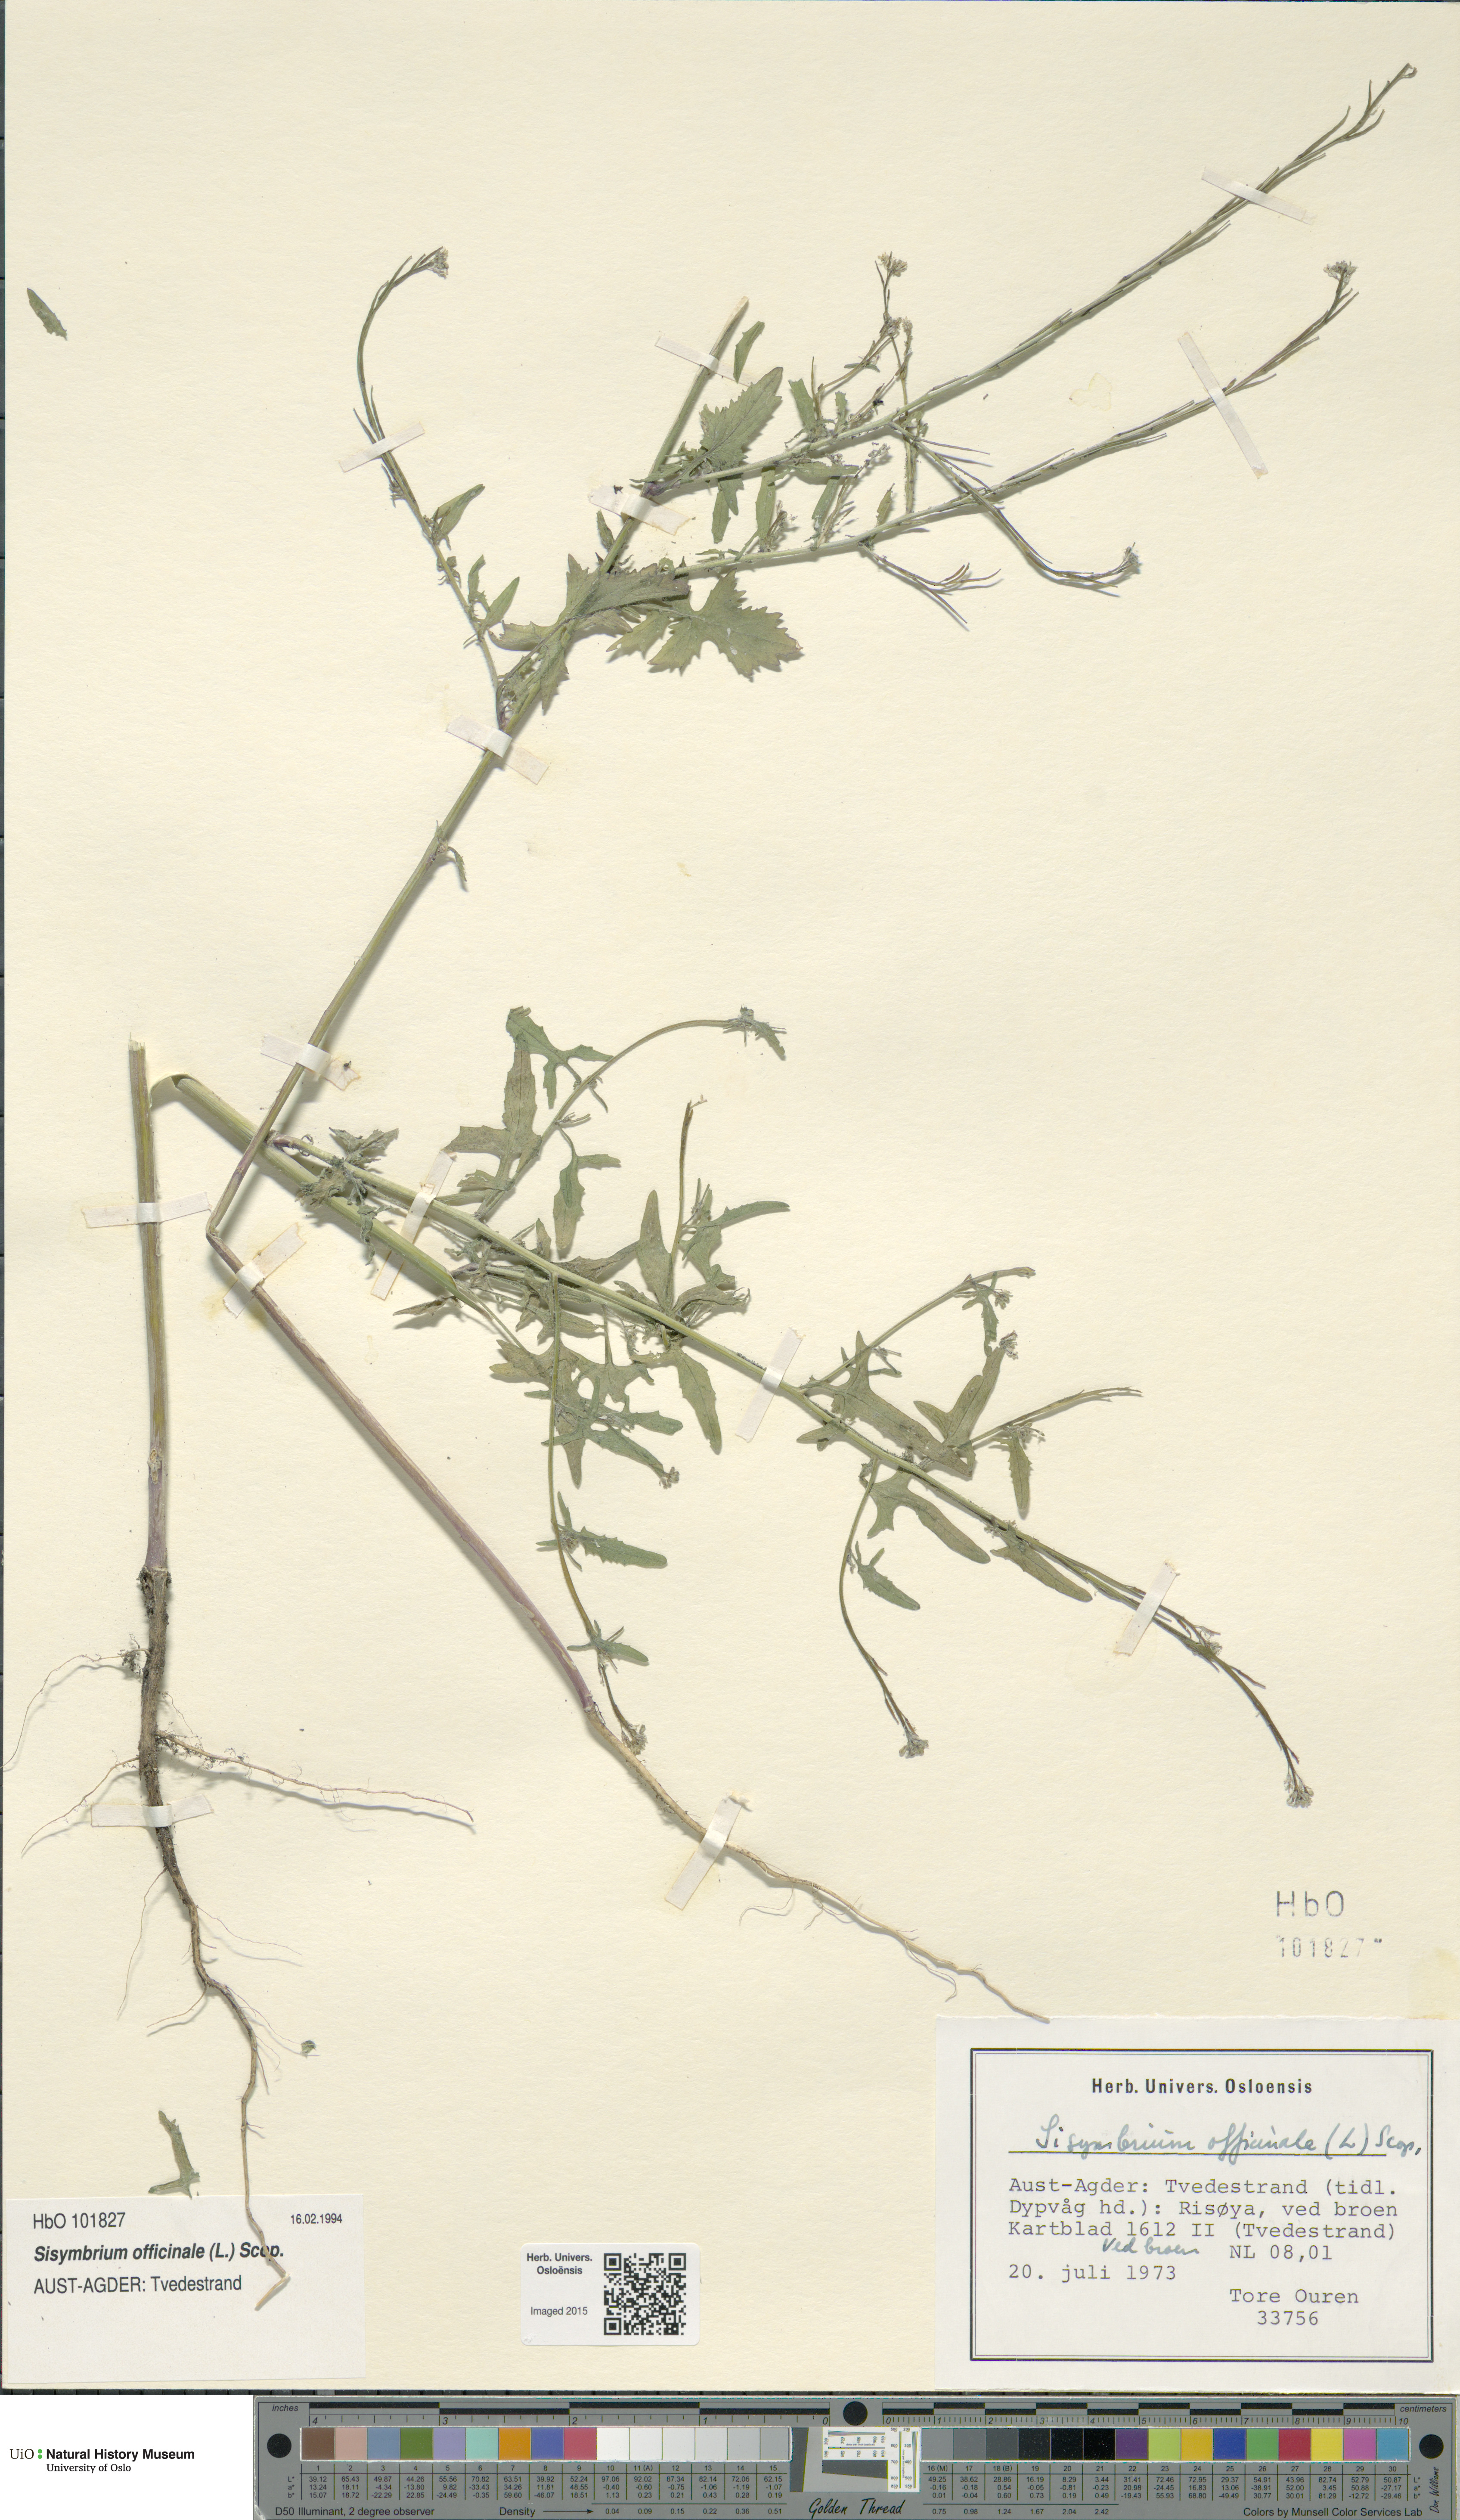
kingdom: Plantae
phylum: Tracheophyta
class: Magnoliopsida
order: Brassicales
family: Brassicaceae
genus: Sisymbrium
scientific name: Sisymbrium officinale
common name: Hedge mustard
